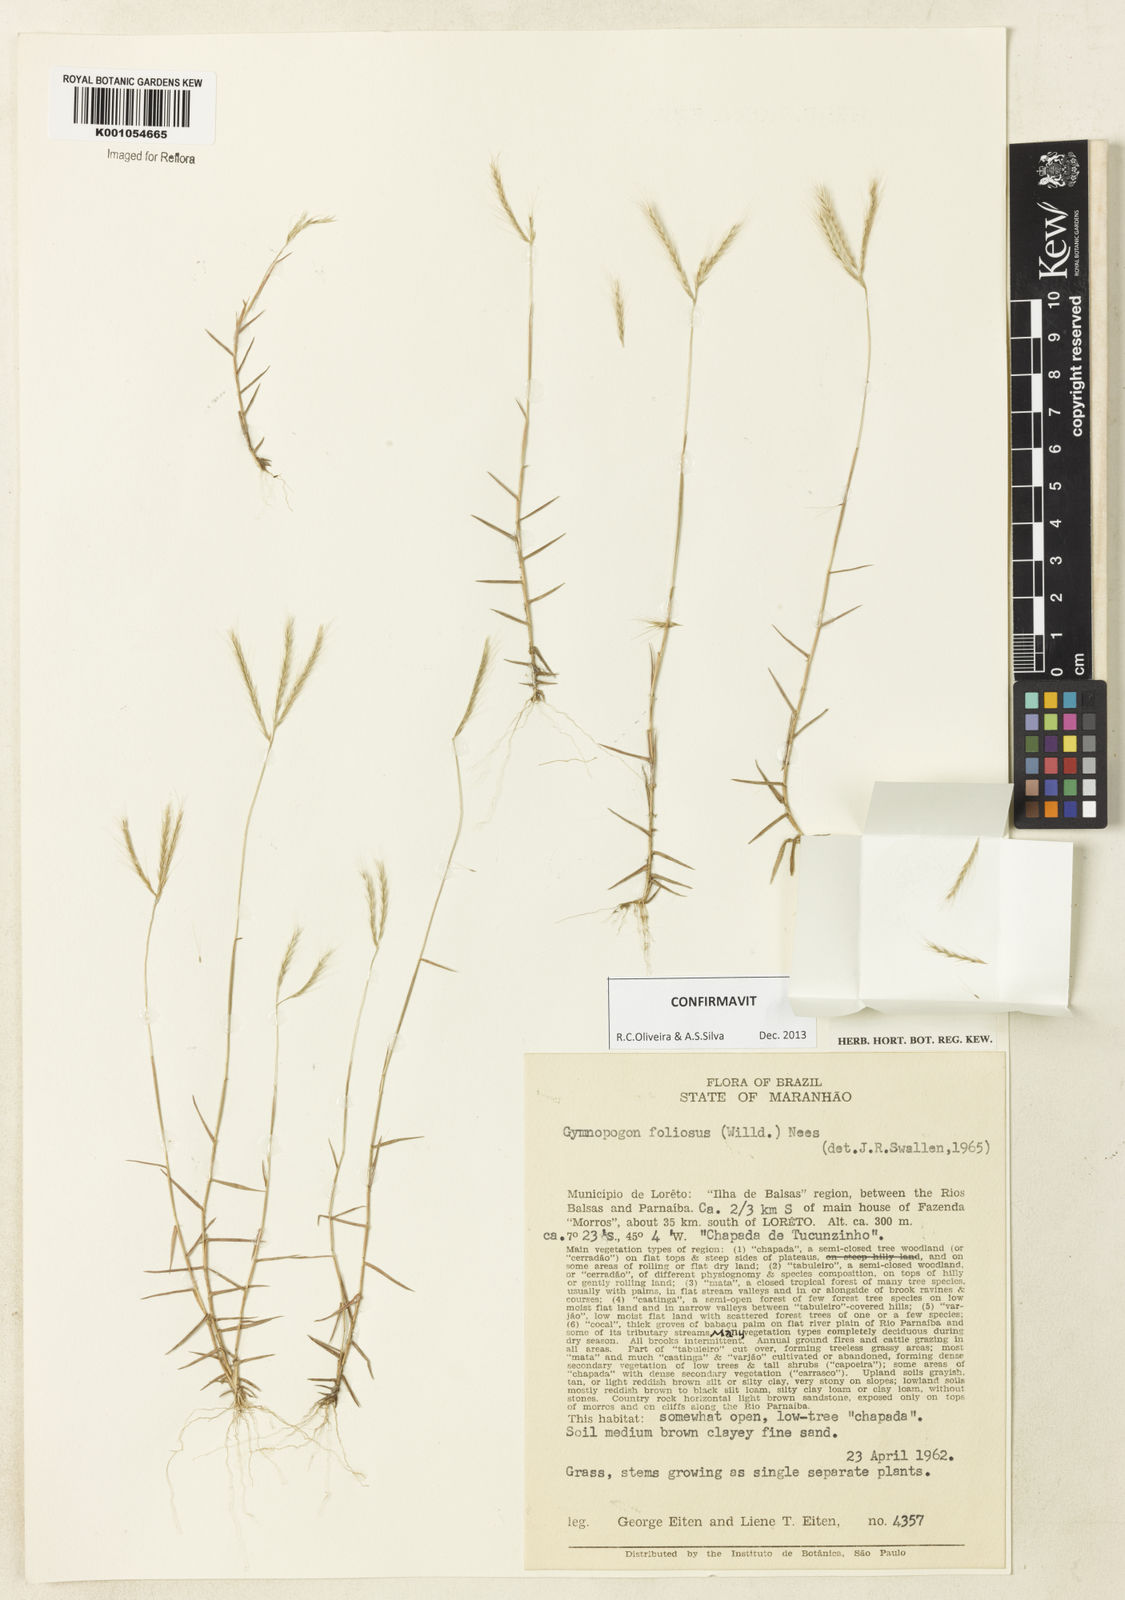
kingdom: Plantae
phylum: Tracheophyta
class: Liliopsida
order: Poales
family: Poaceae
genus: Gymnopogon
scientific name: Gymnopogon foliosus
